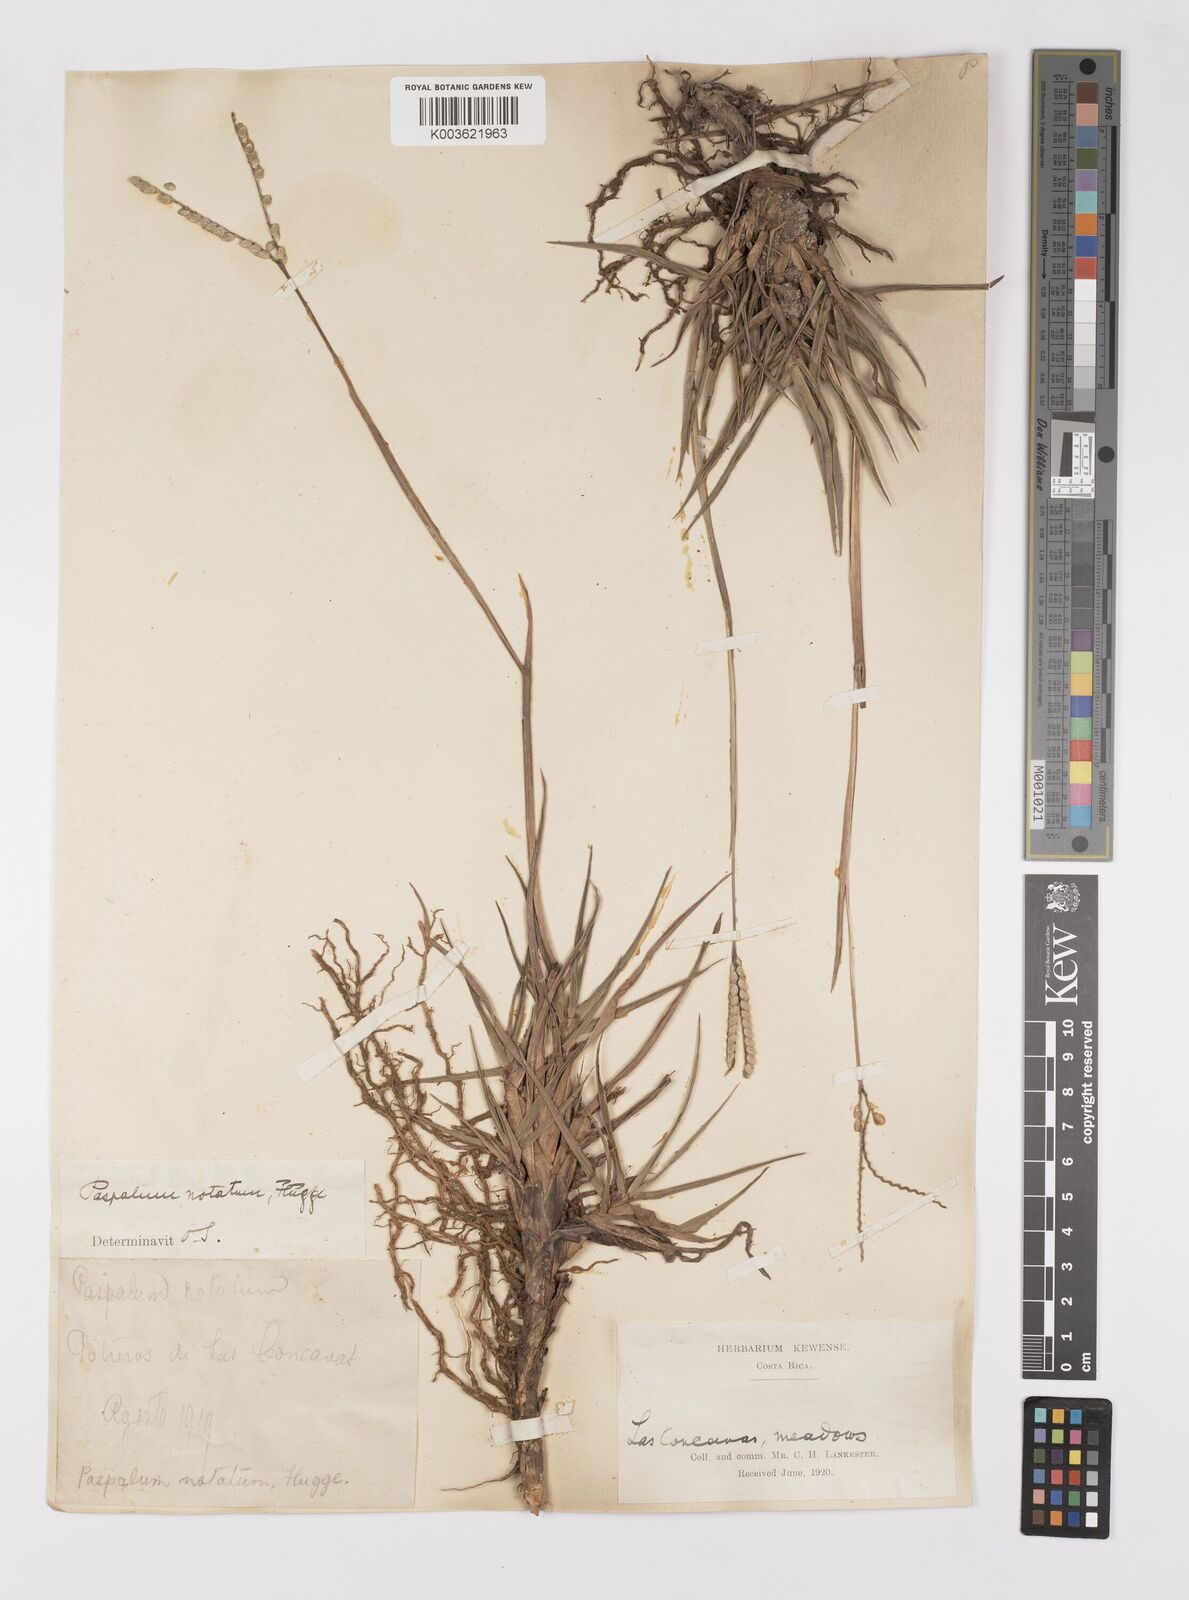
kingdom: Plantae
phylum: Tracheophyta
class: Liliopsida
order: Poales
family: Poaceae
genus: Paspalum
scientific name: Paspalum notatum
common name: Bahiagrass
